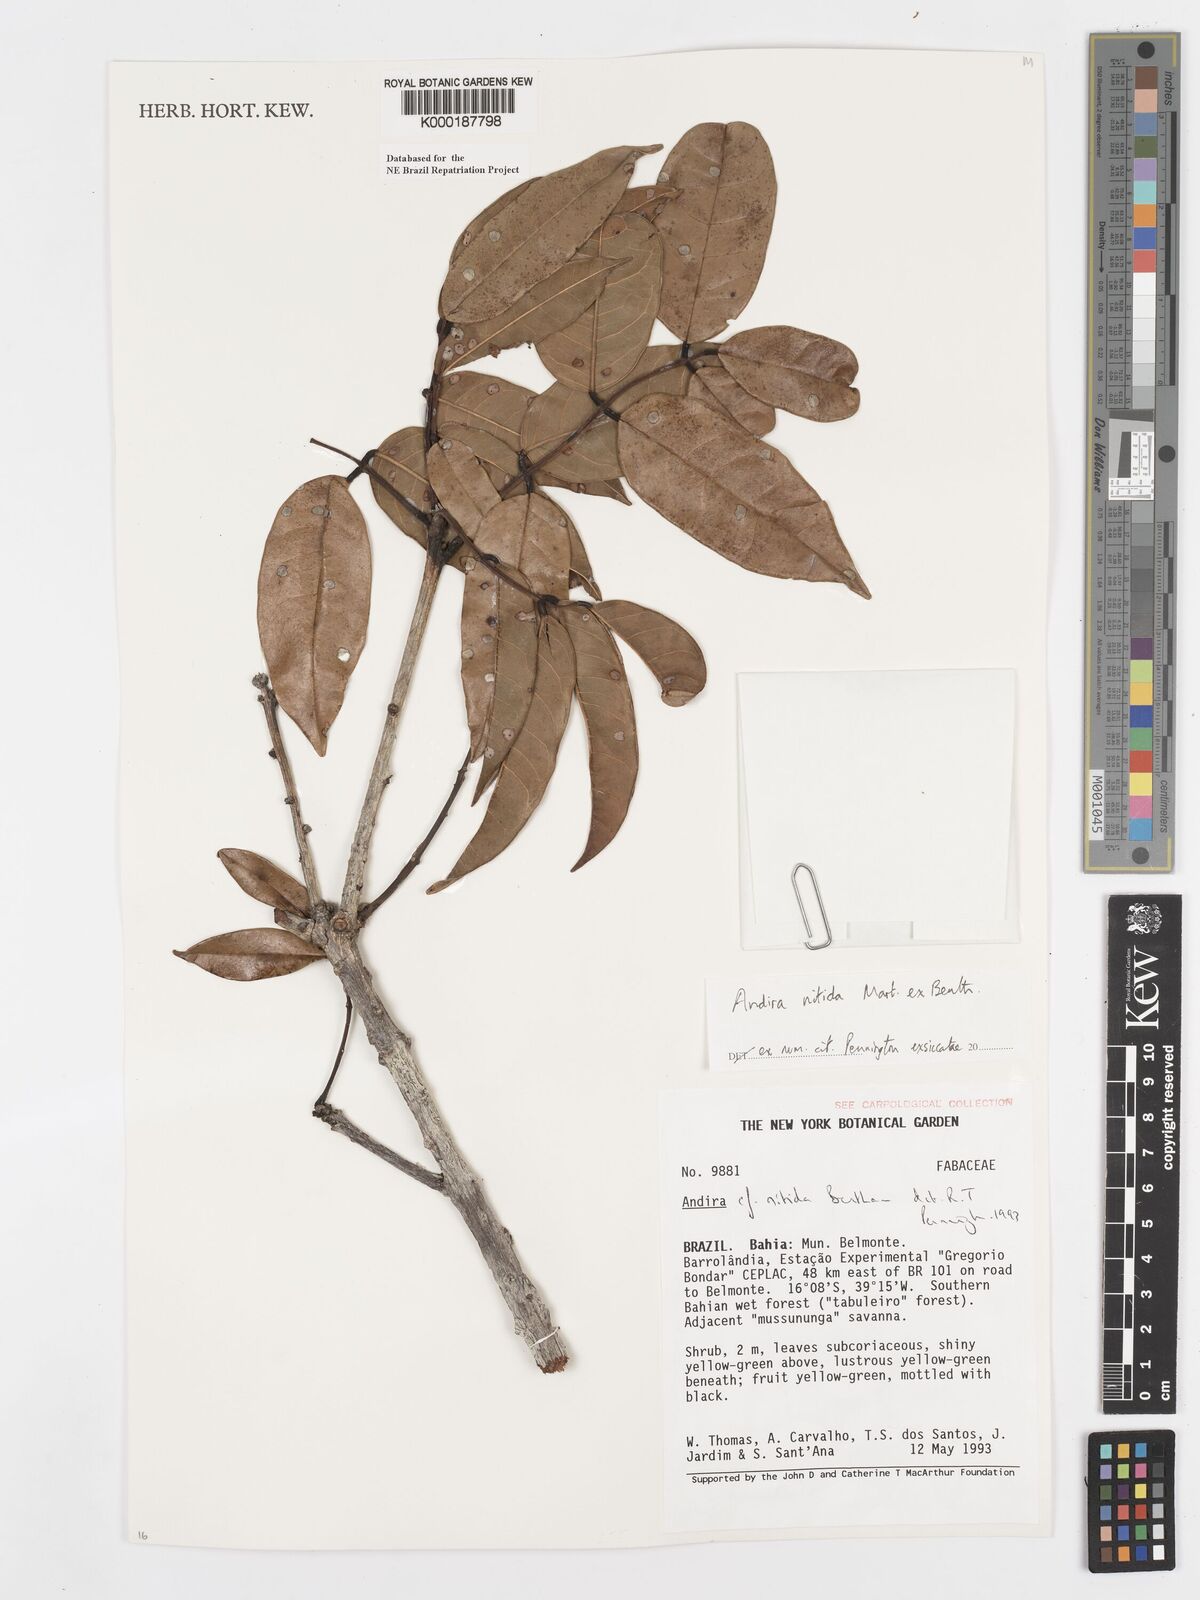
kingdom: Plantae
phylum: Tracheophyta
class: Magnoliopsida
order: Fabales
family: Fabaceae
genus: Andira
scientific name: Andira nitida
